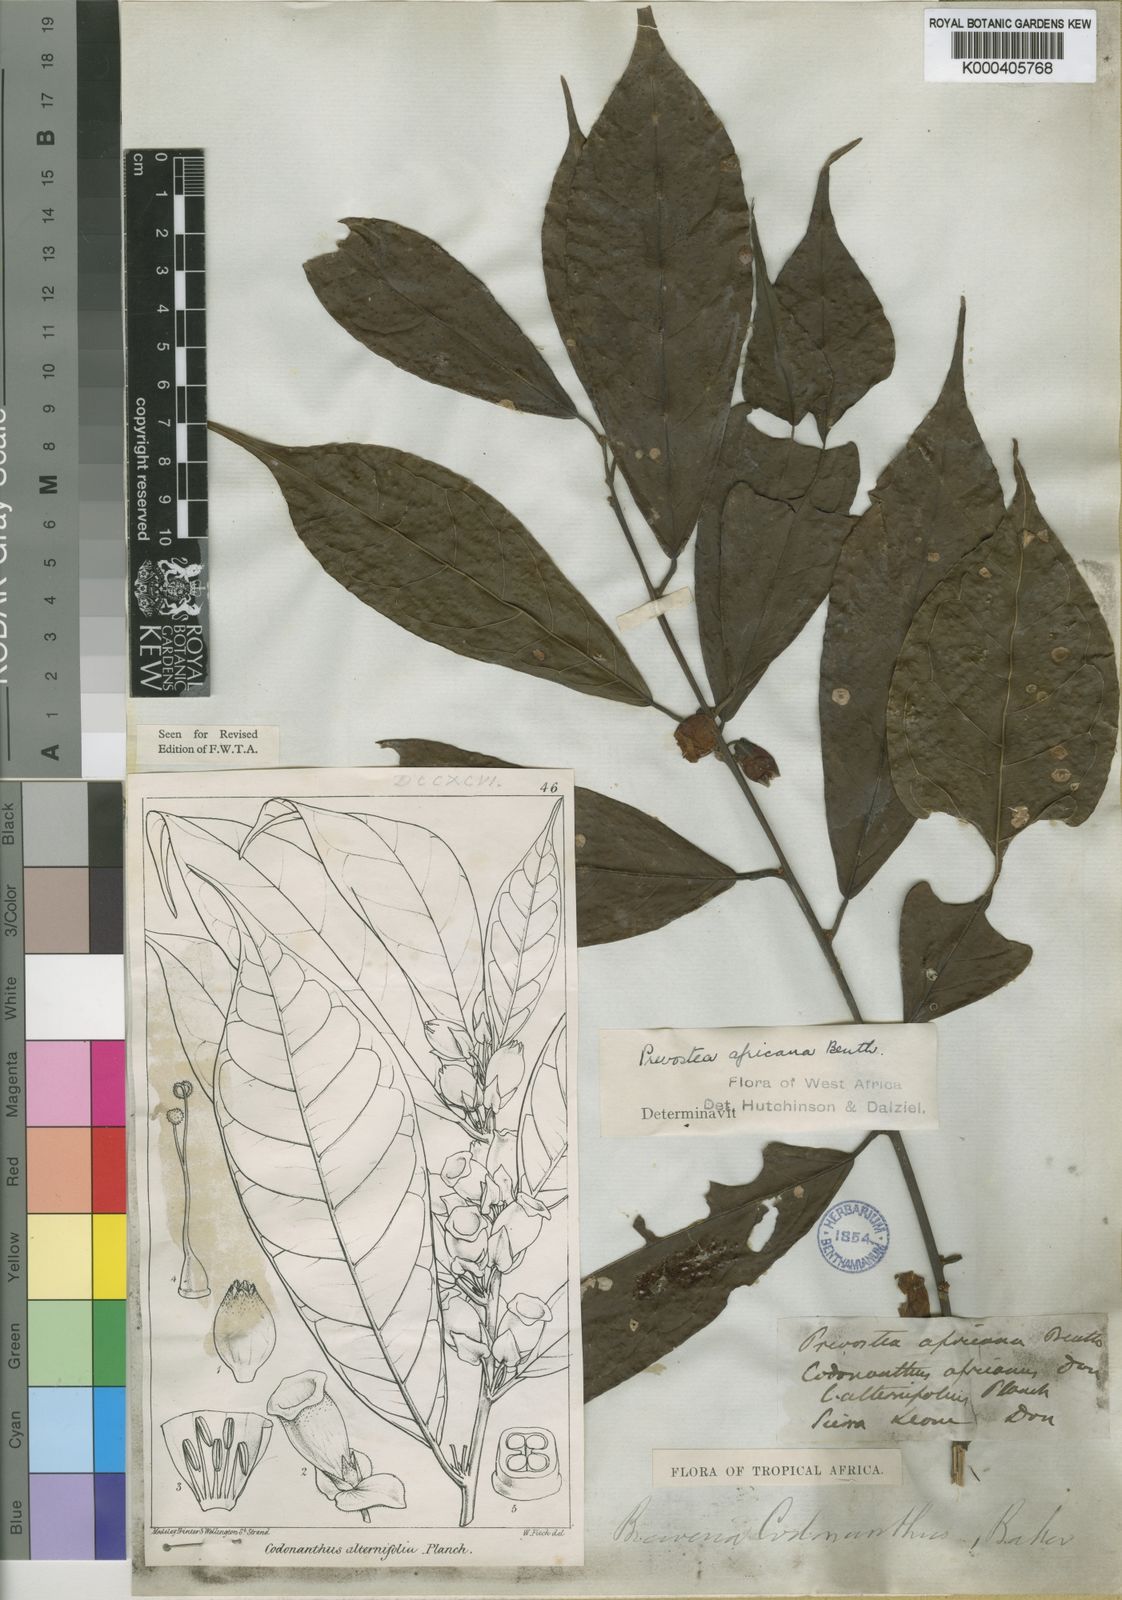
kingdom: Plantae
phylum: Tracheophyta
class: Magnoliopsida
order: Solanales
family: Convolvulaceae
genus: Calycobolus
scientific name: Calycobolus africanus
